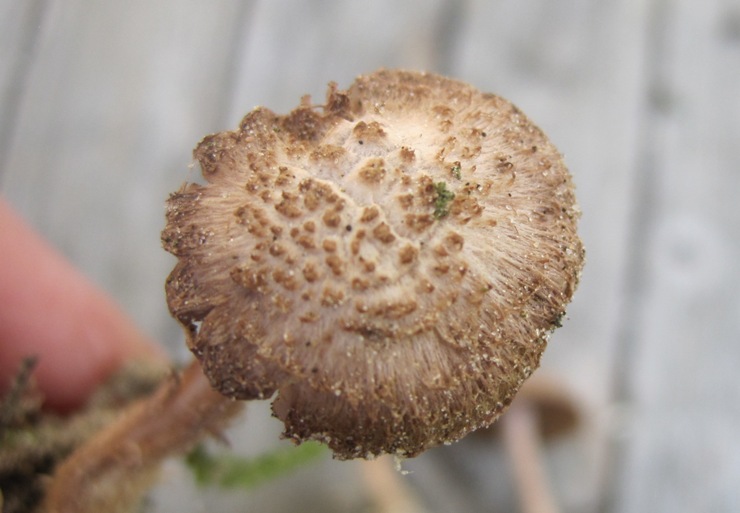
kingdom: Fungi
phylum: Basidiomycota
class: Agaricomycetes
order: Agaricales
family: Inocybaceae
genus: Inocybe
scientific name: Inocybe cincinnata
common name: lillabladet trævlhat
